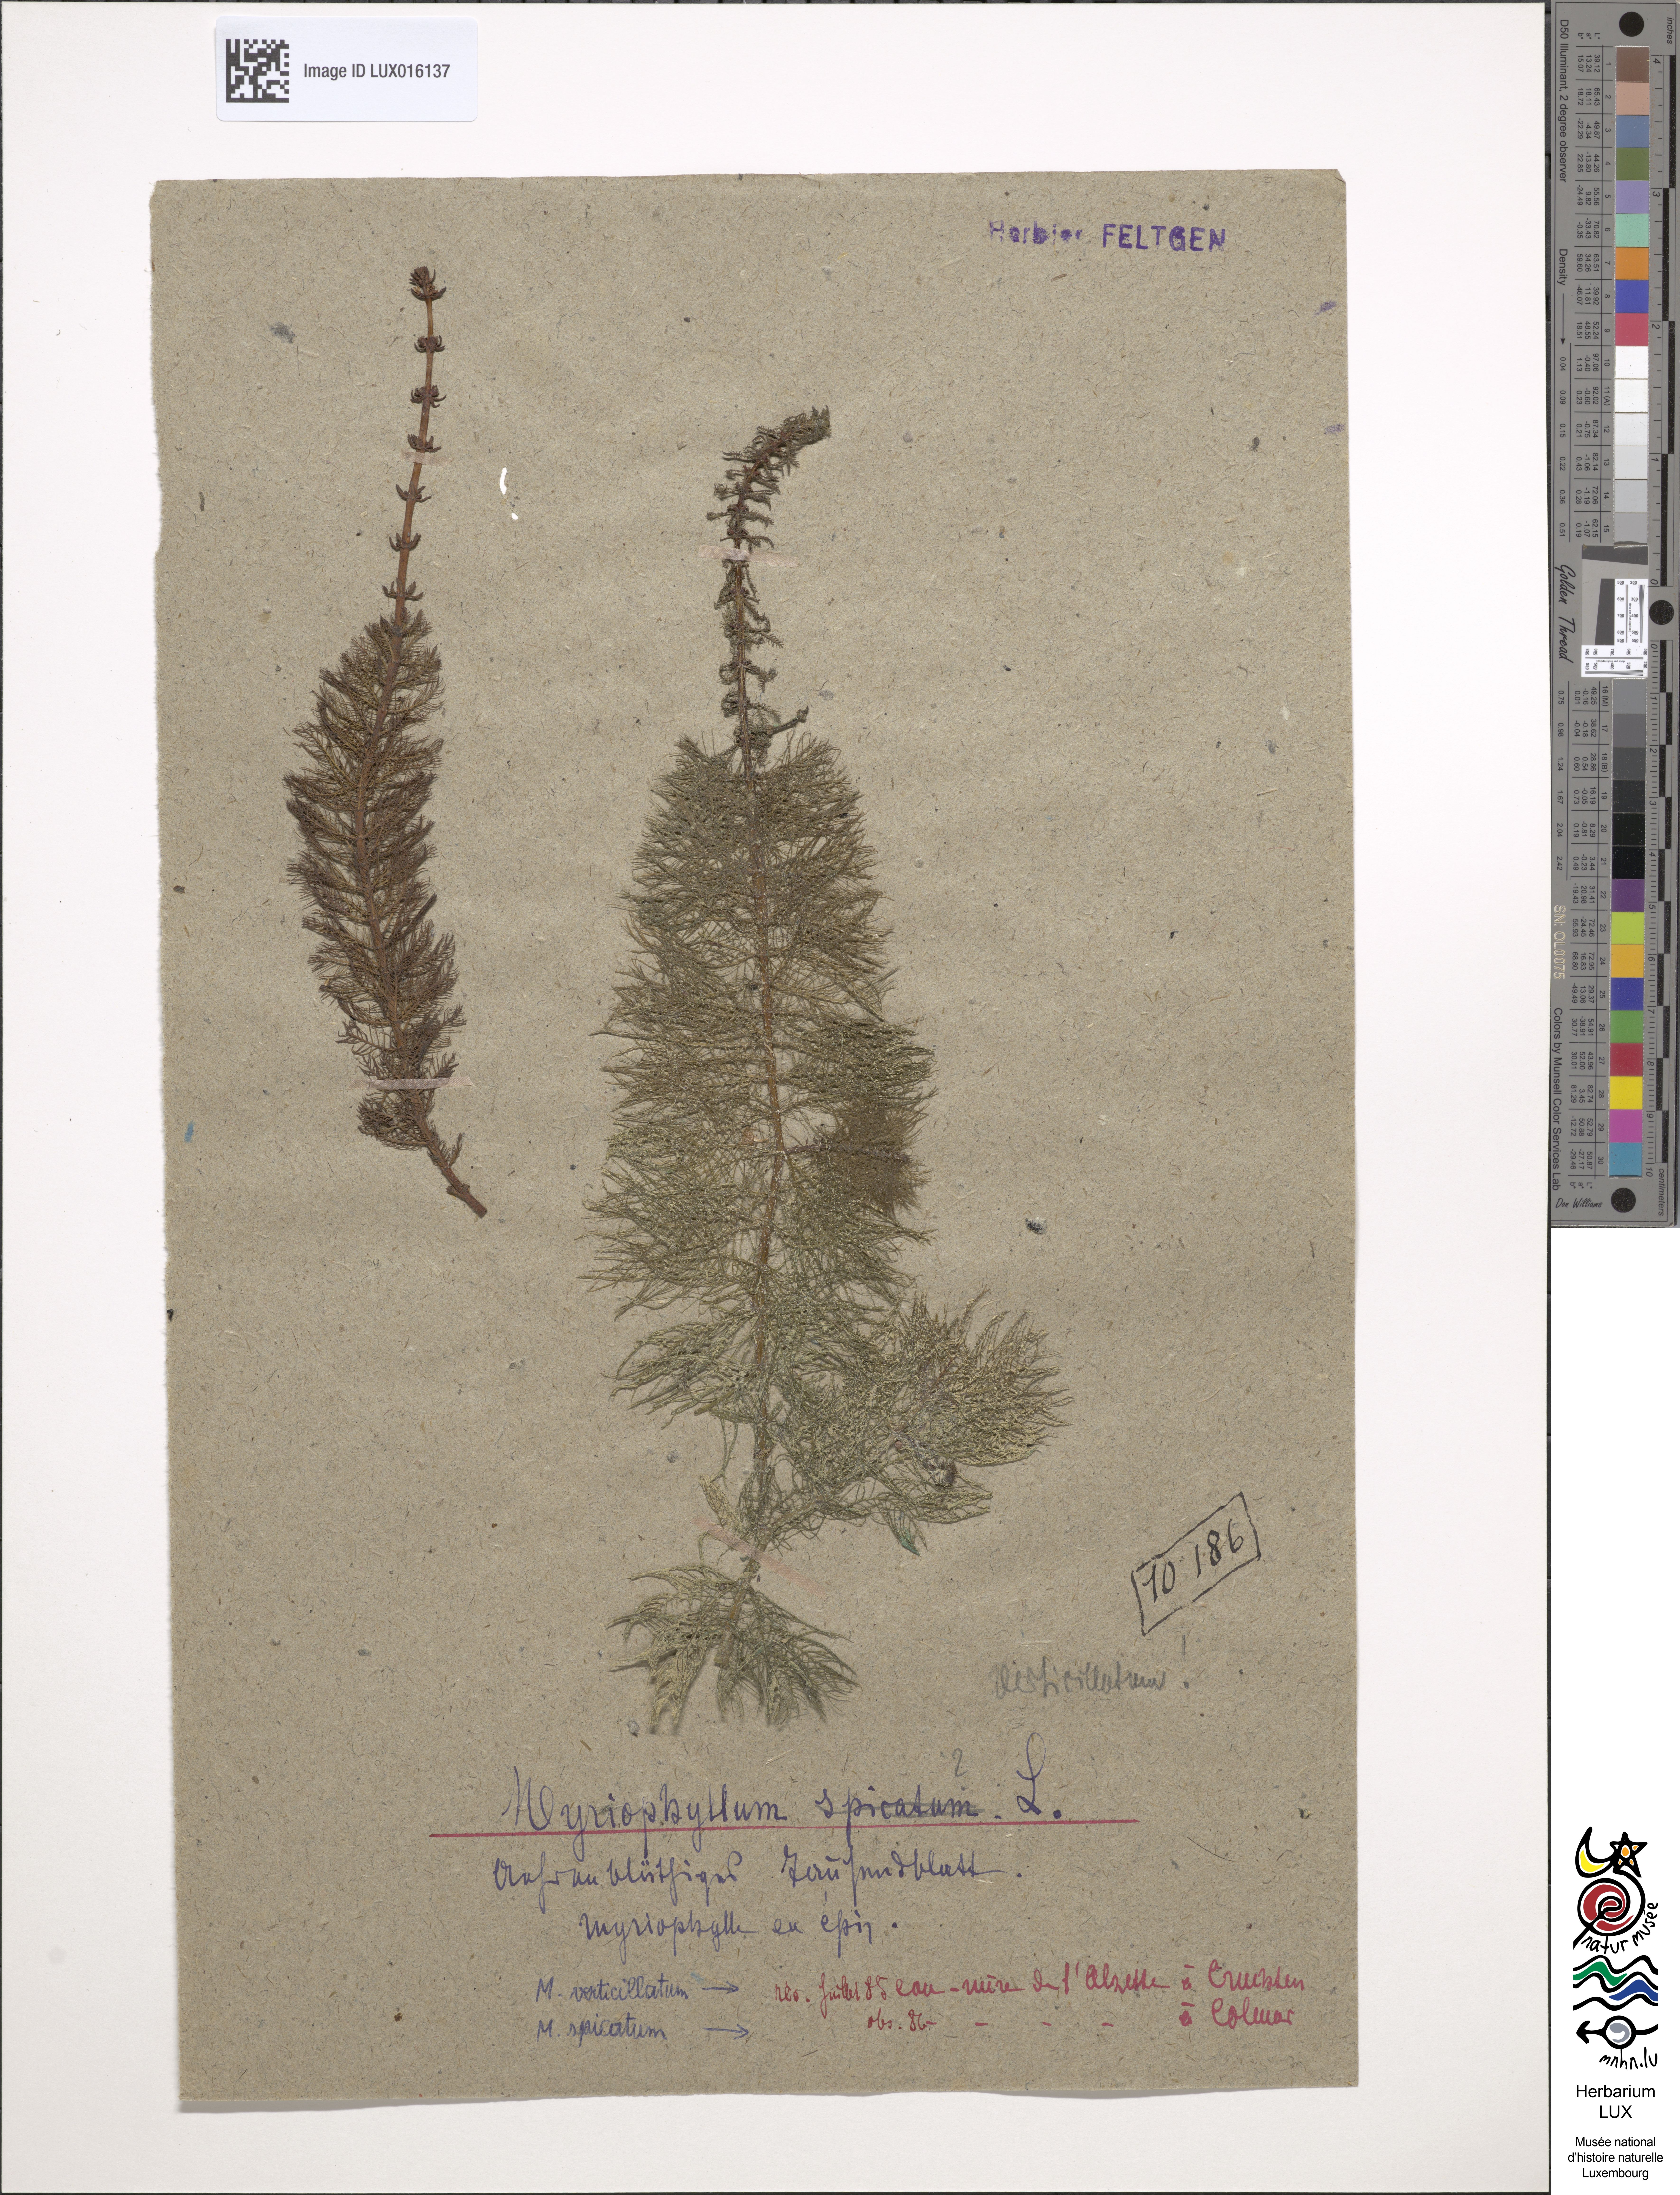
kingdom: Plantae
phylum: Tracheophyta
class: Magnoliopsida
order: Saxifragales
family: Haloragaceae
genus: Myriophyllum
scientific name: Myriophyllum verticillatum
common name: Whorled water-milfoil
